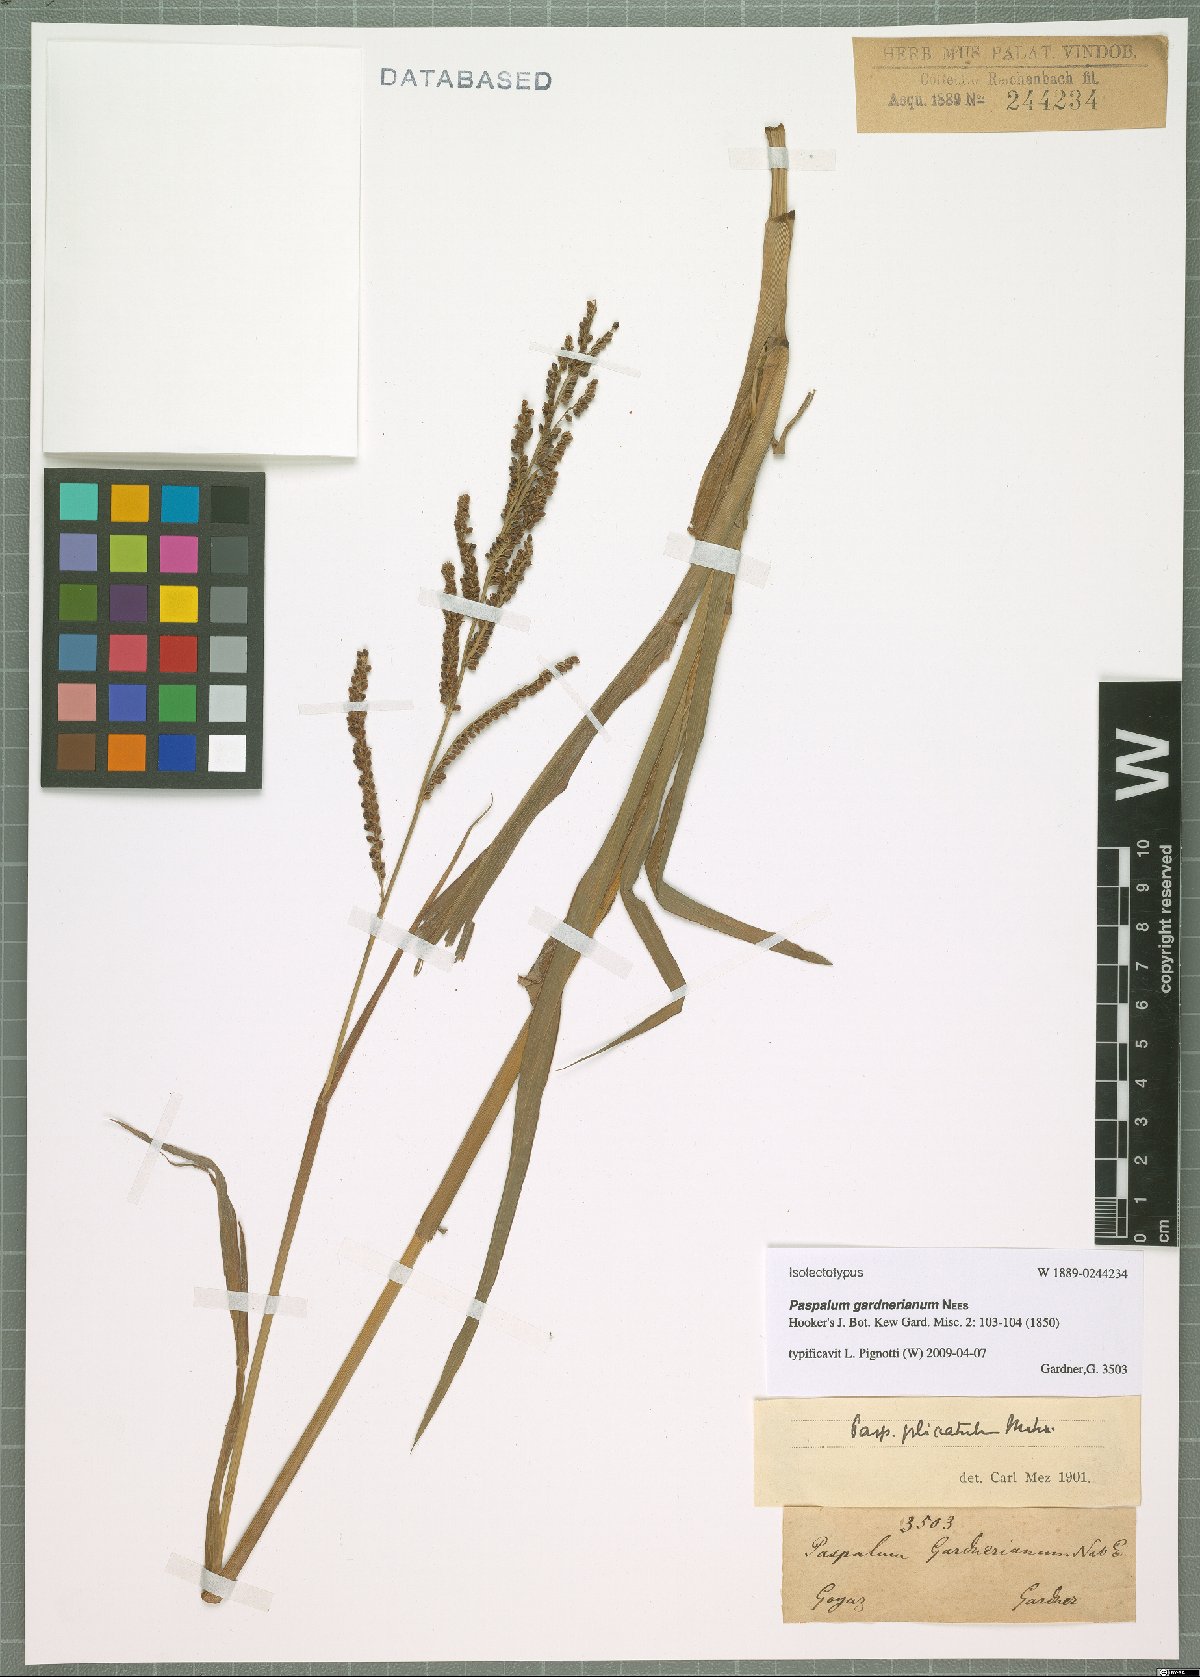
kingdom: Plantae
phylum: Tracheophyta
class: Liliopsida
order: Poales
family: Poaceae
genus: Paspalum
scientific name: Paspalum gardnerianum
